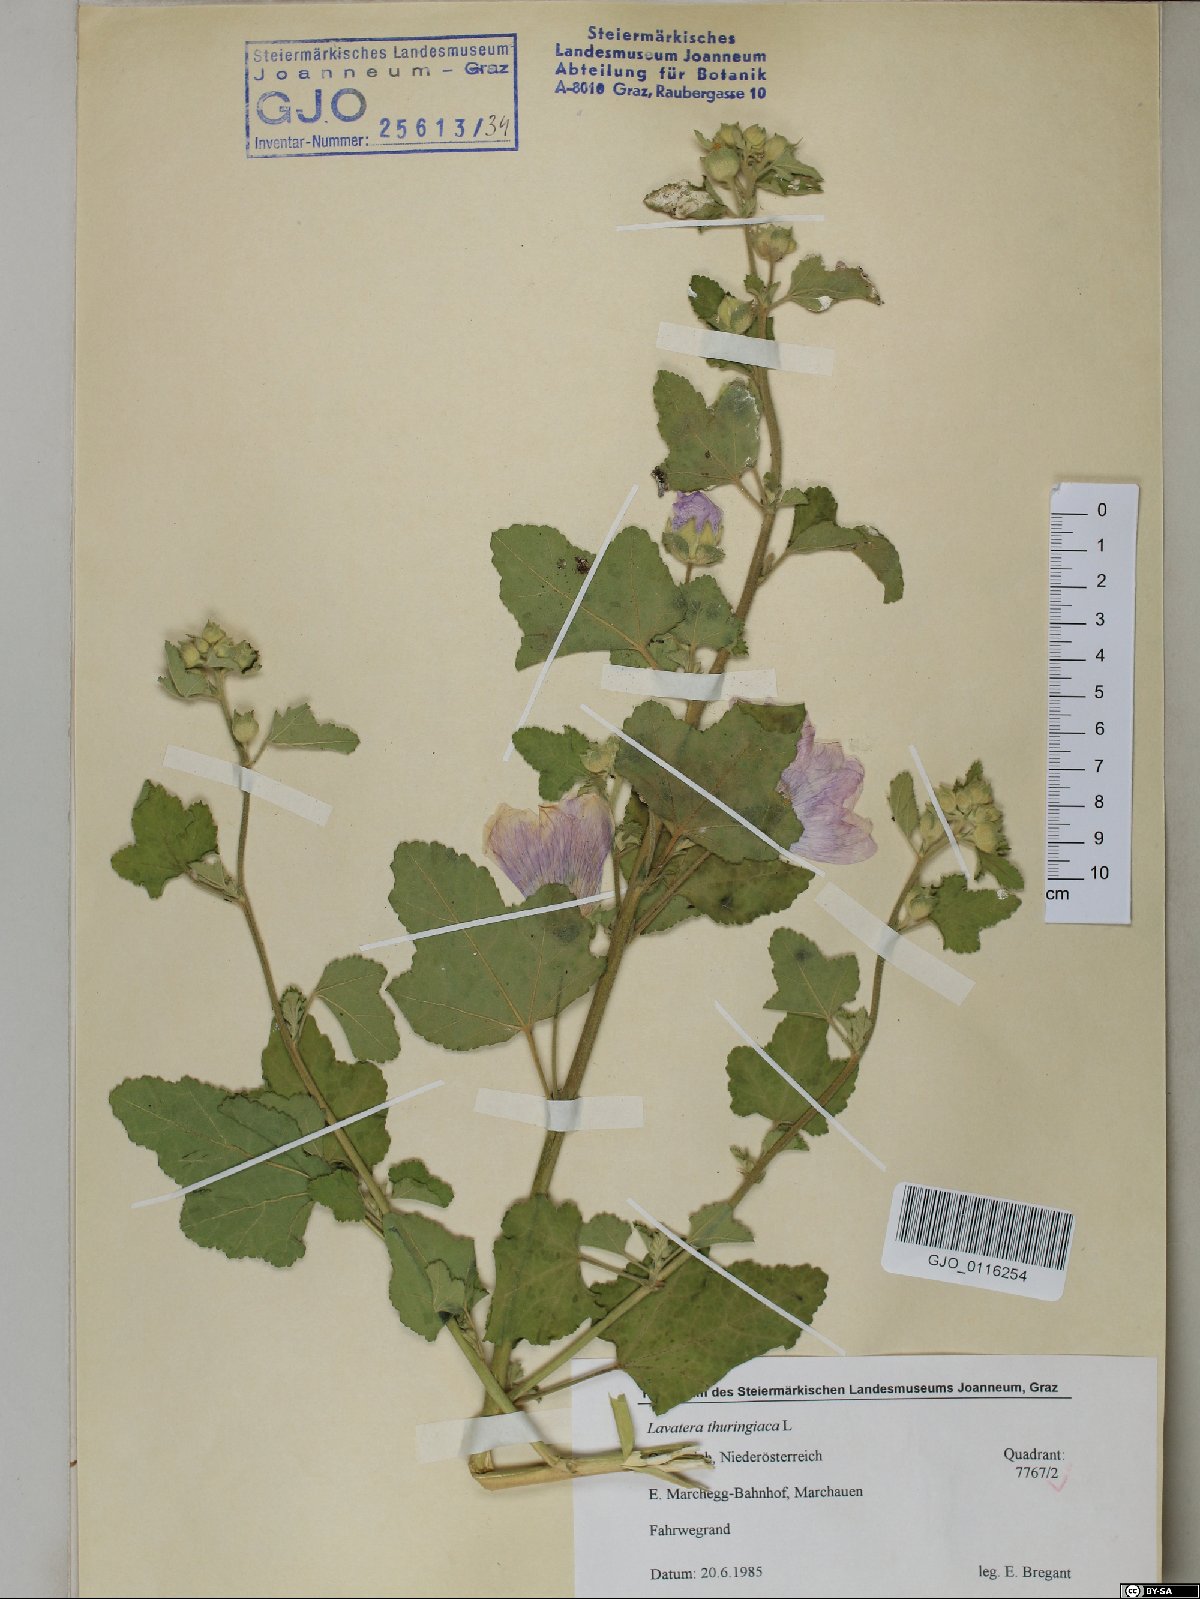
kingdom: Plantae
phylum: Tracheophyta
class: Magnoliopsida
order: Malvales
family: Malvaceae
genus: Malva
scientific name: Malva thuringiaca
